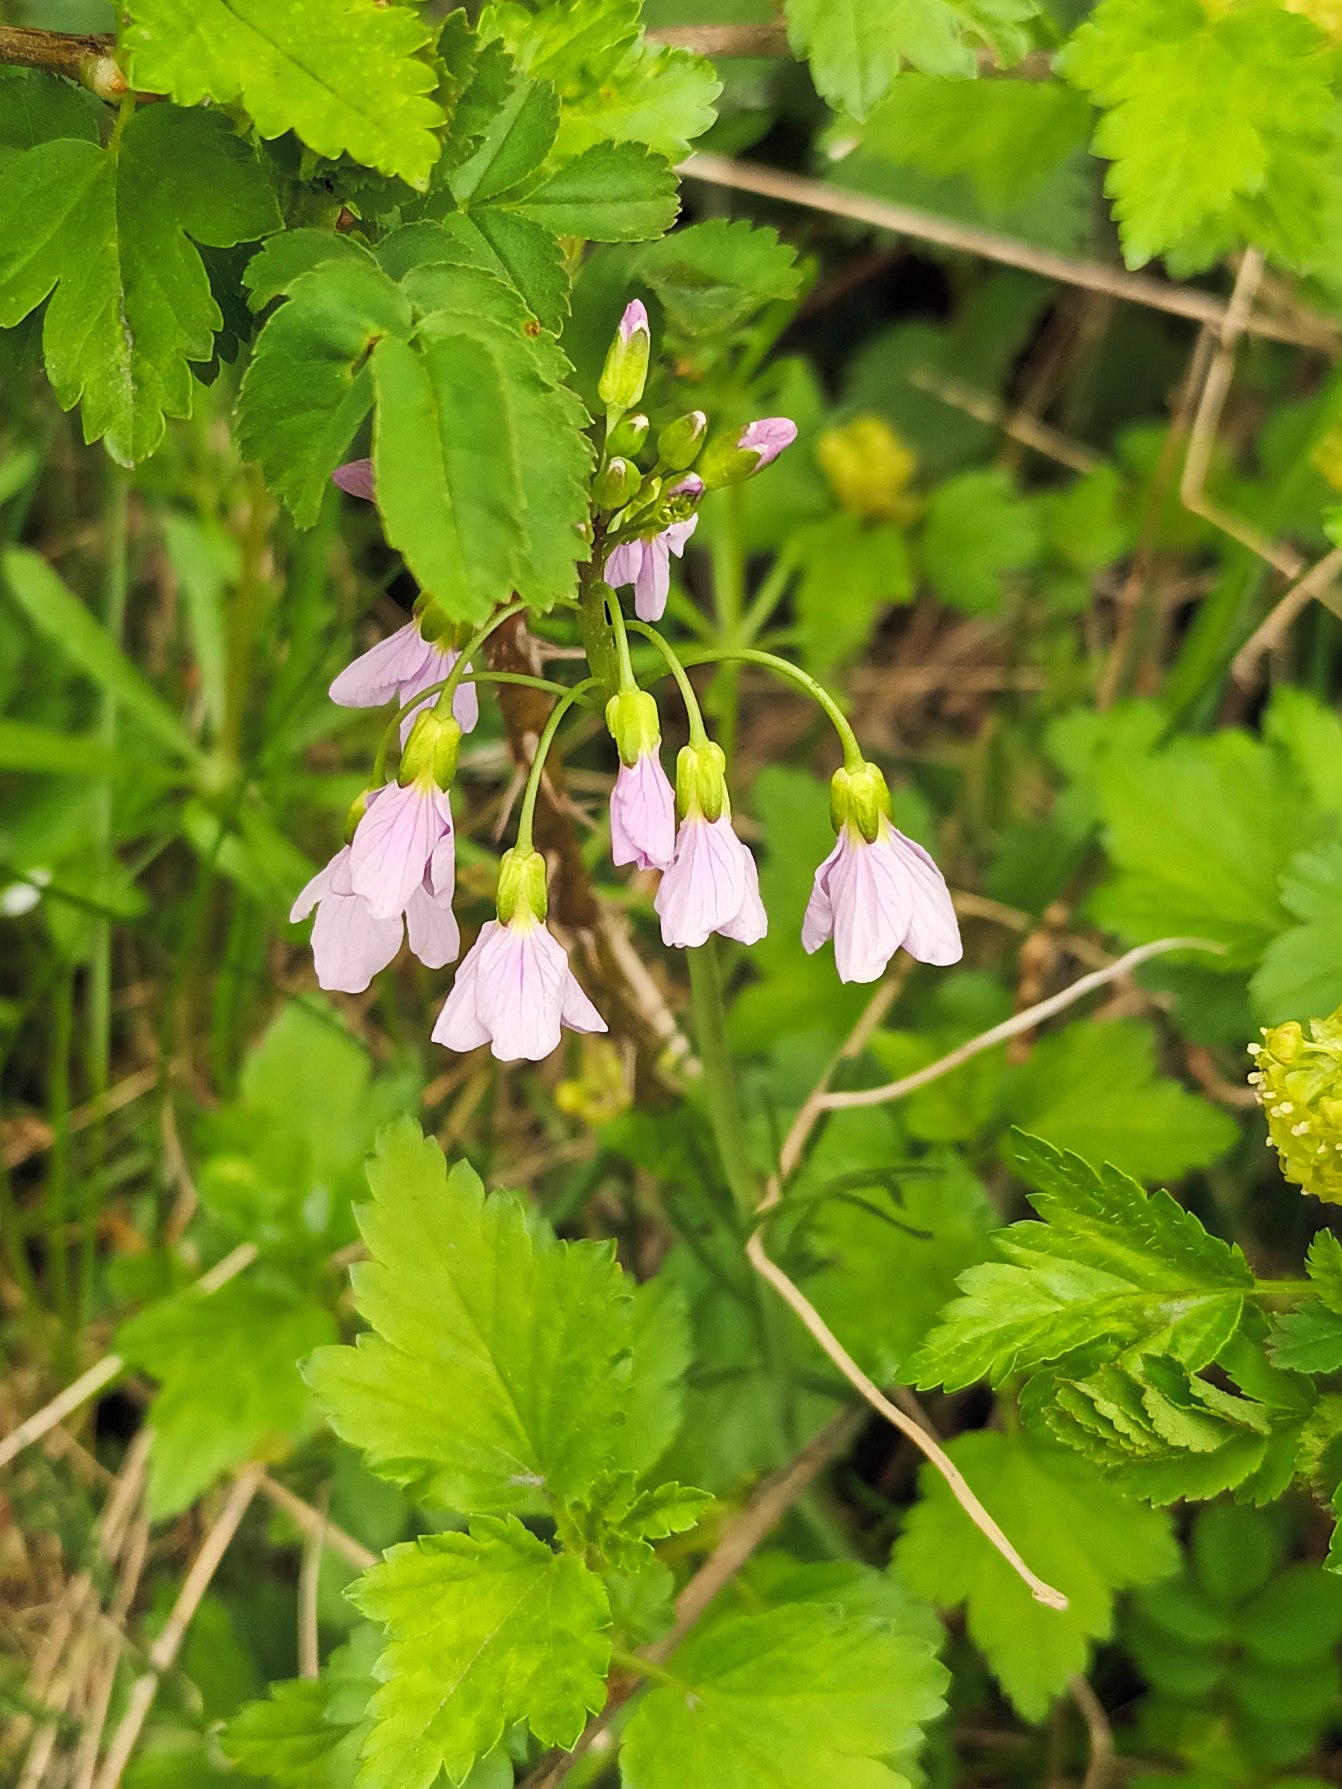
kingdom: Plantae
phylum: Tracheophyta
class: Magnoliopsida
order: Brassicales
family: Brassicaceae
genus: Cardamine
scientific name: Cardamine pratensis
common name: Engkarse
